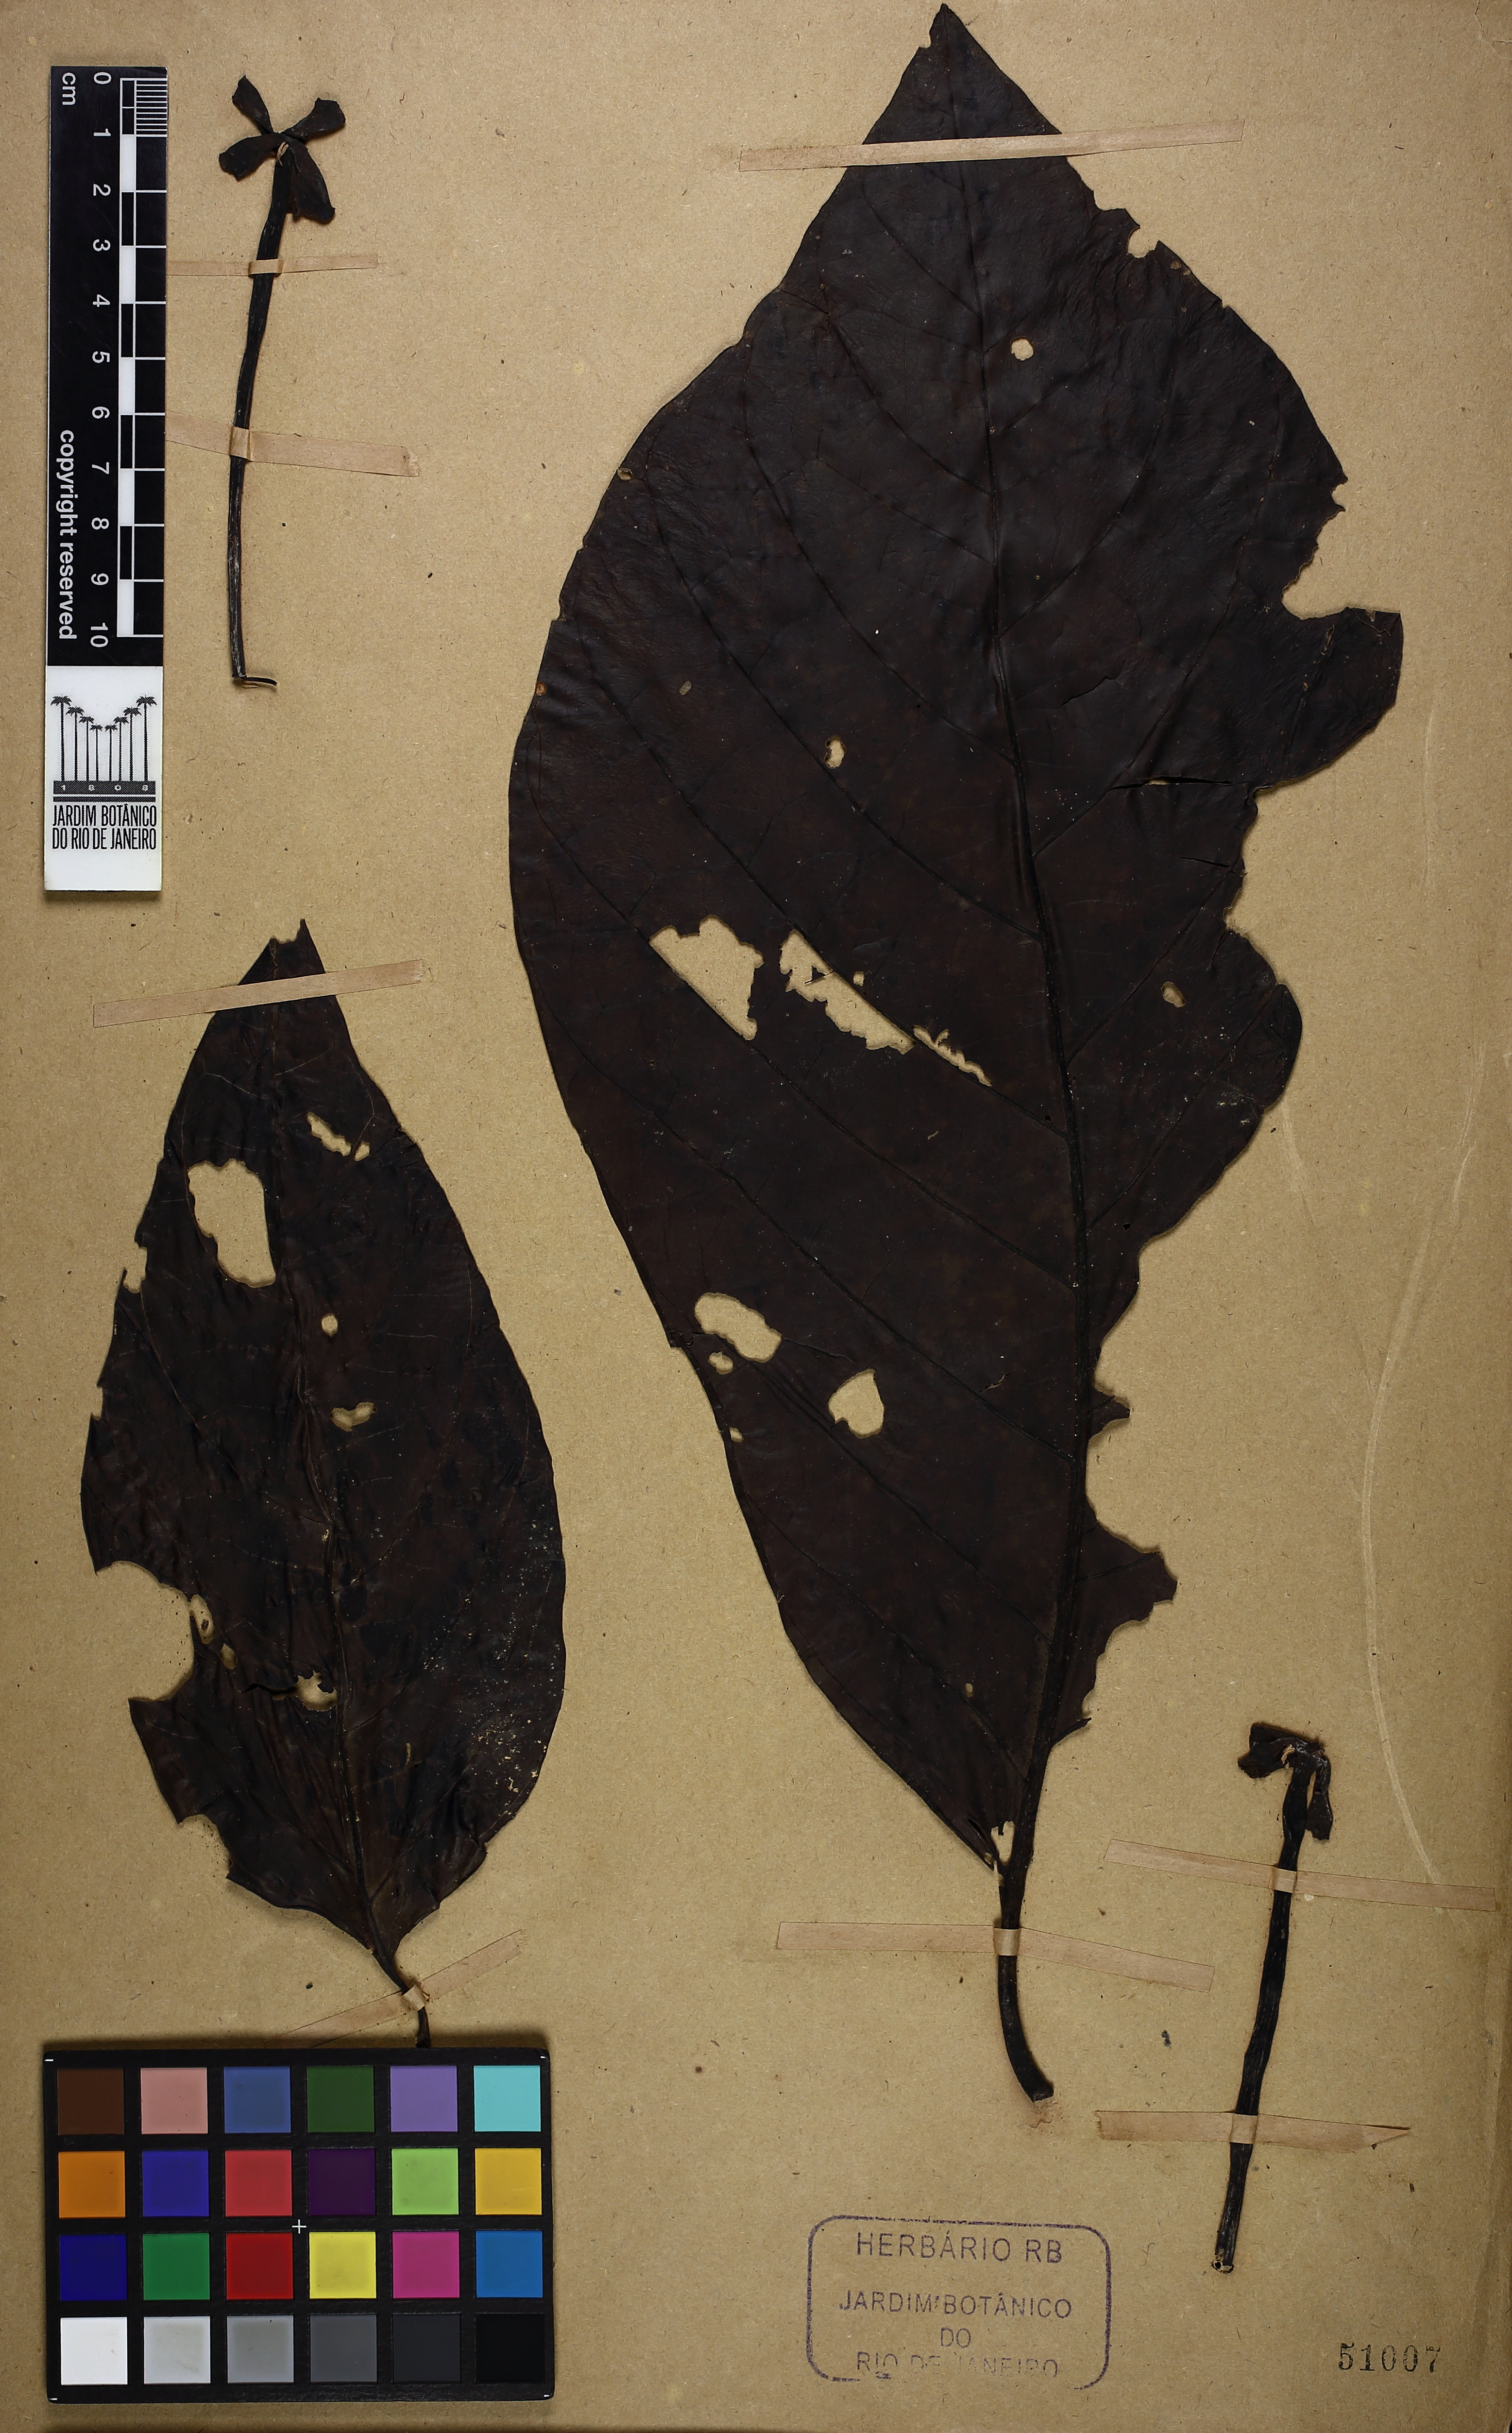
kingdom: Plantae
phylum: Tracheophyta
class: Magnoliopsida
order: Gentianales
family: Rubiaceae
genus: Tocoyena
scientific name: Tocoyena pittieri
